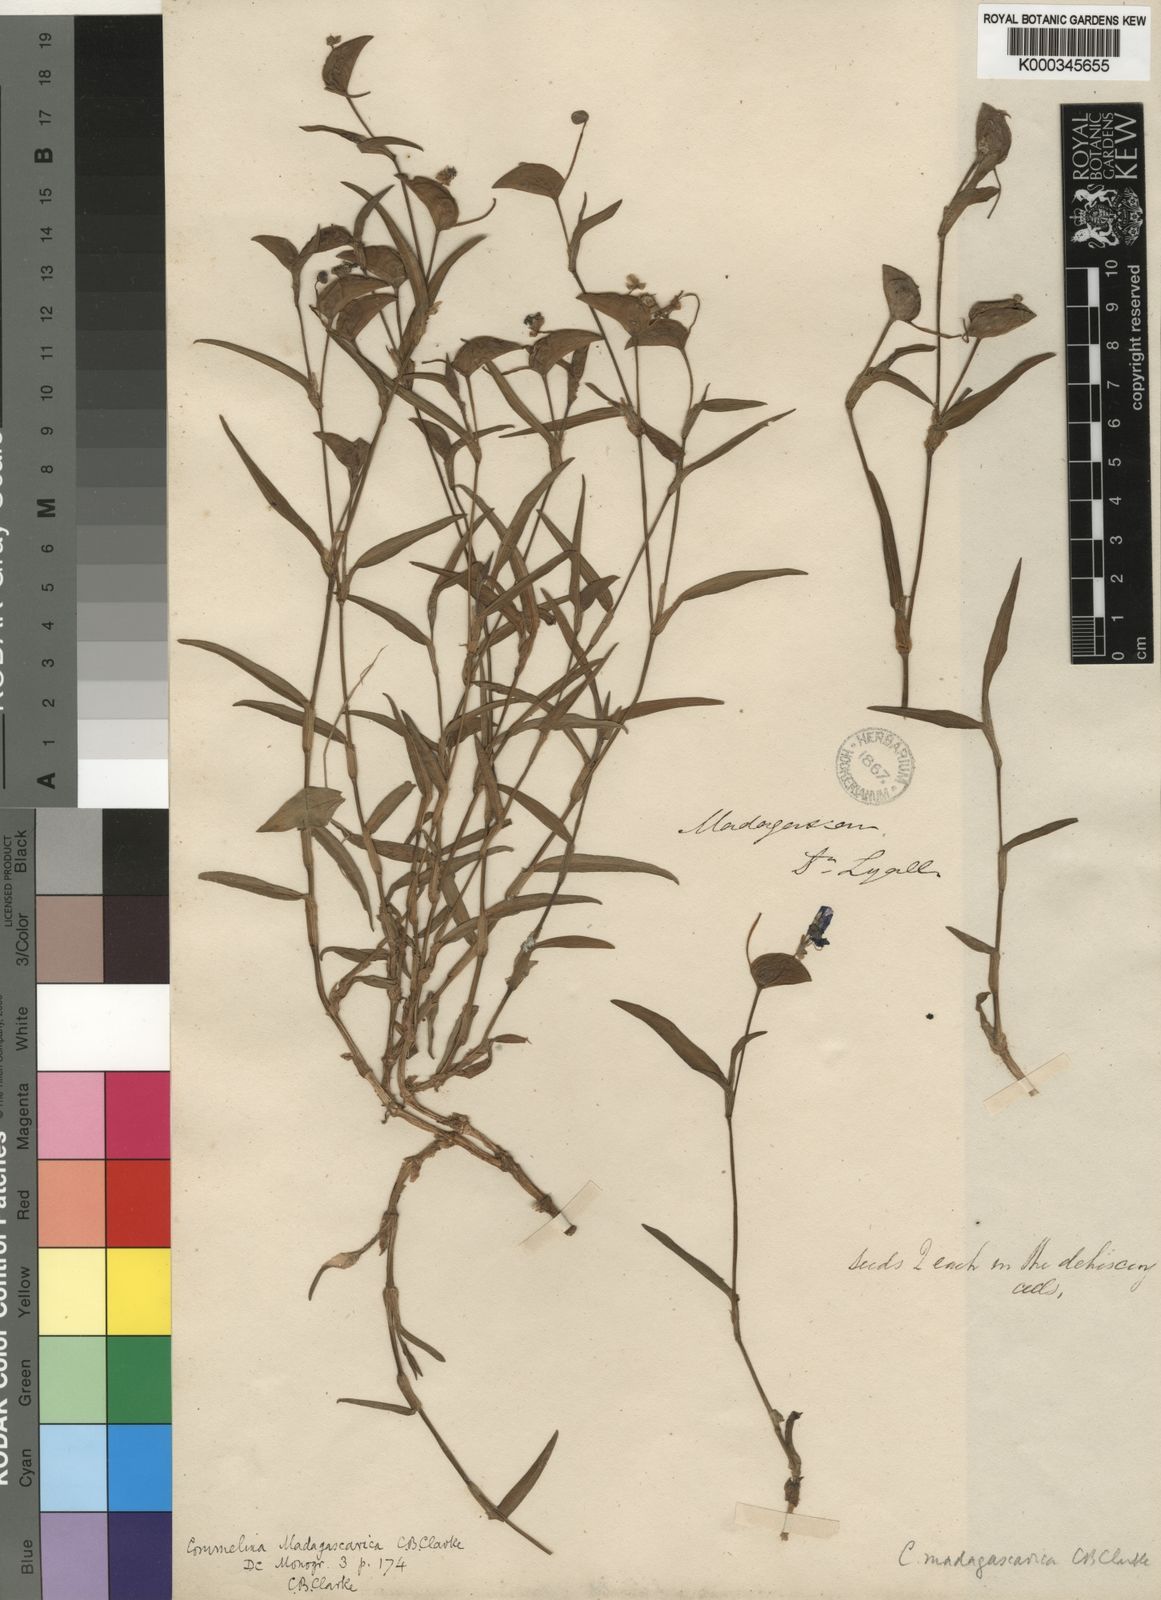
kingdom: Plantae
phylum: Tracheophyta
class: Liliopsida
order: Commelinales
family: Commelinaceae
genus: Commelina
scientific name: Commelina madagascarica
